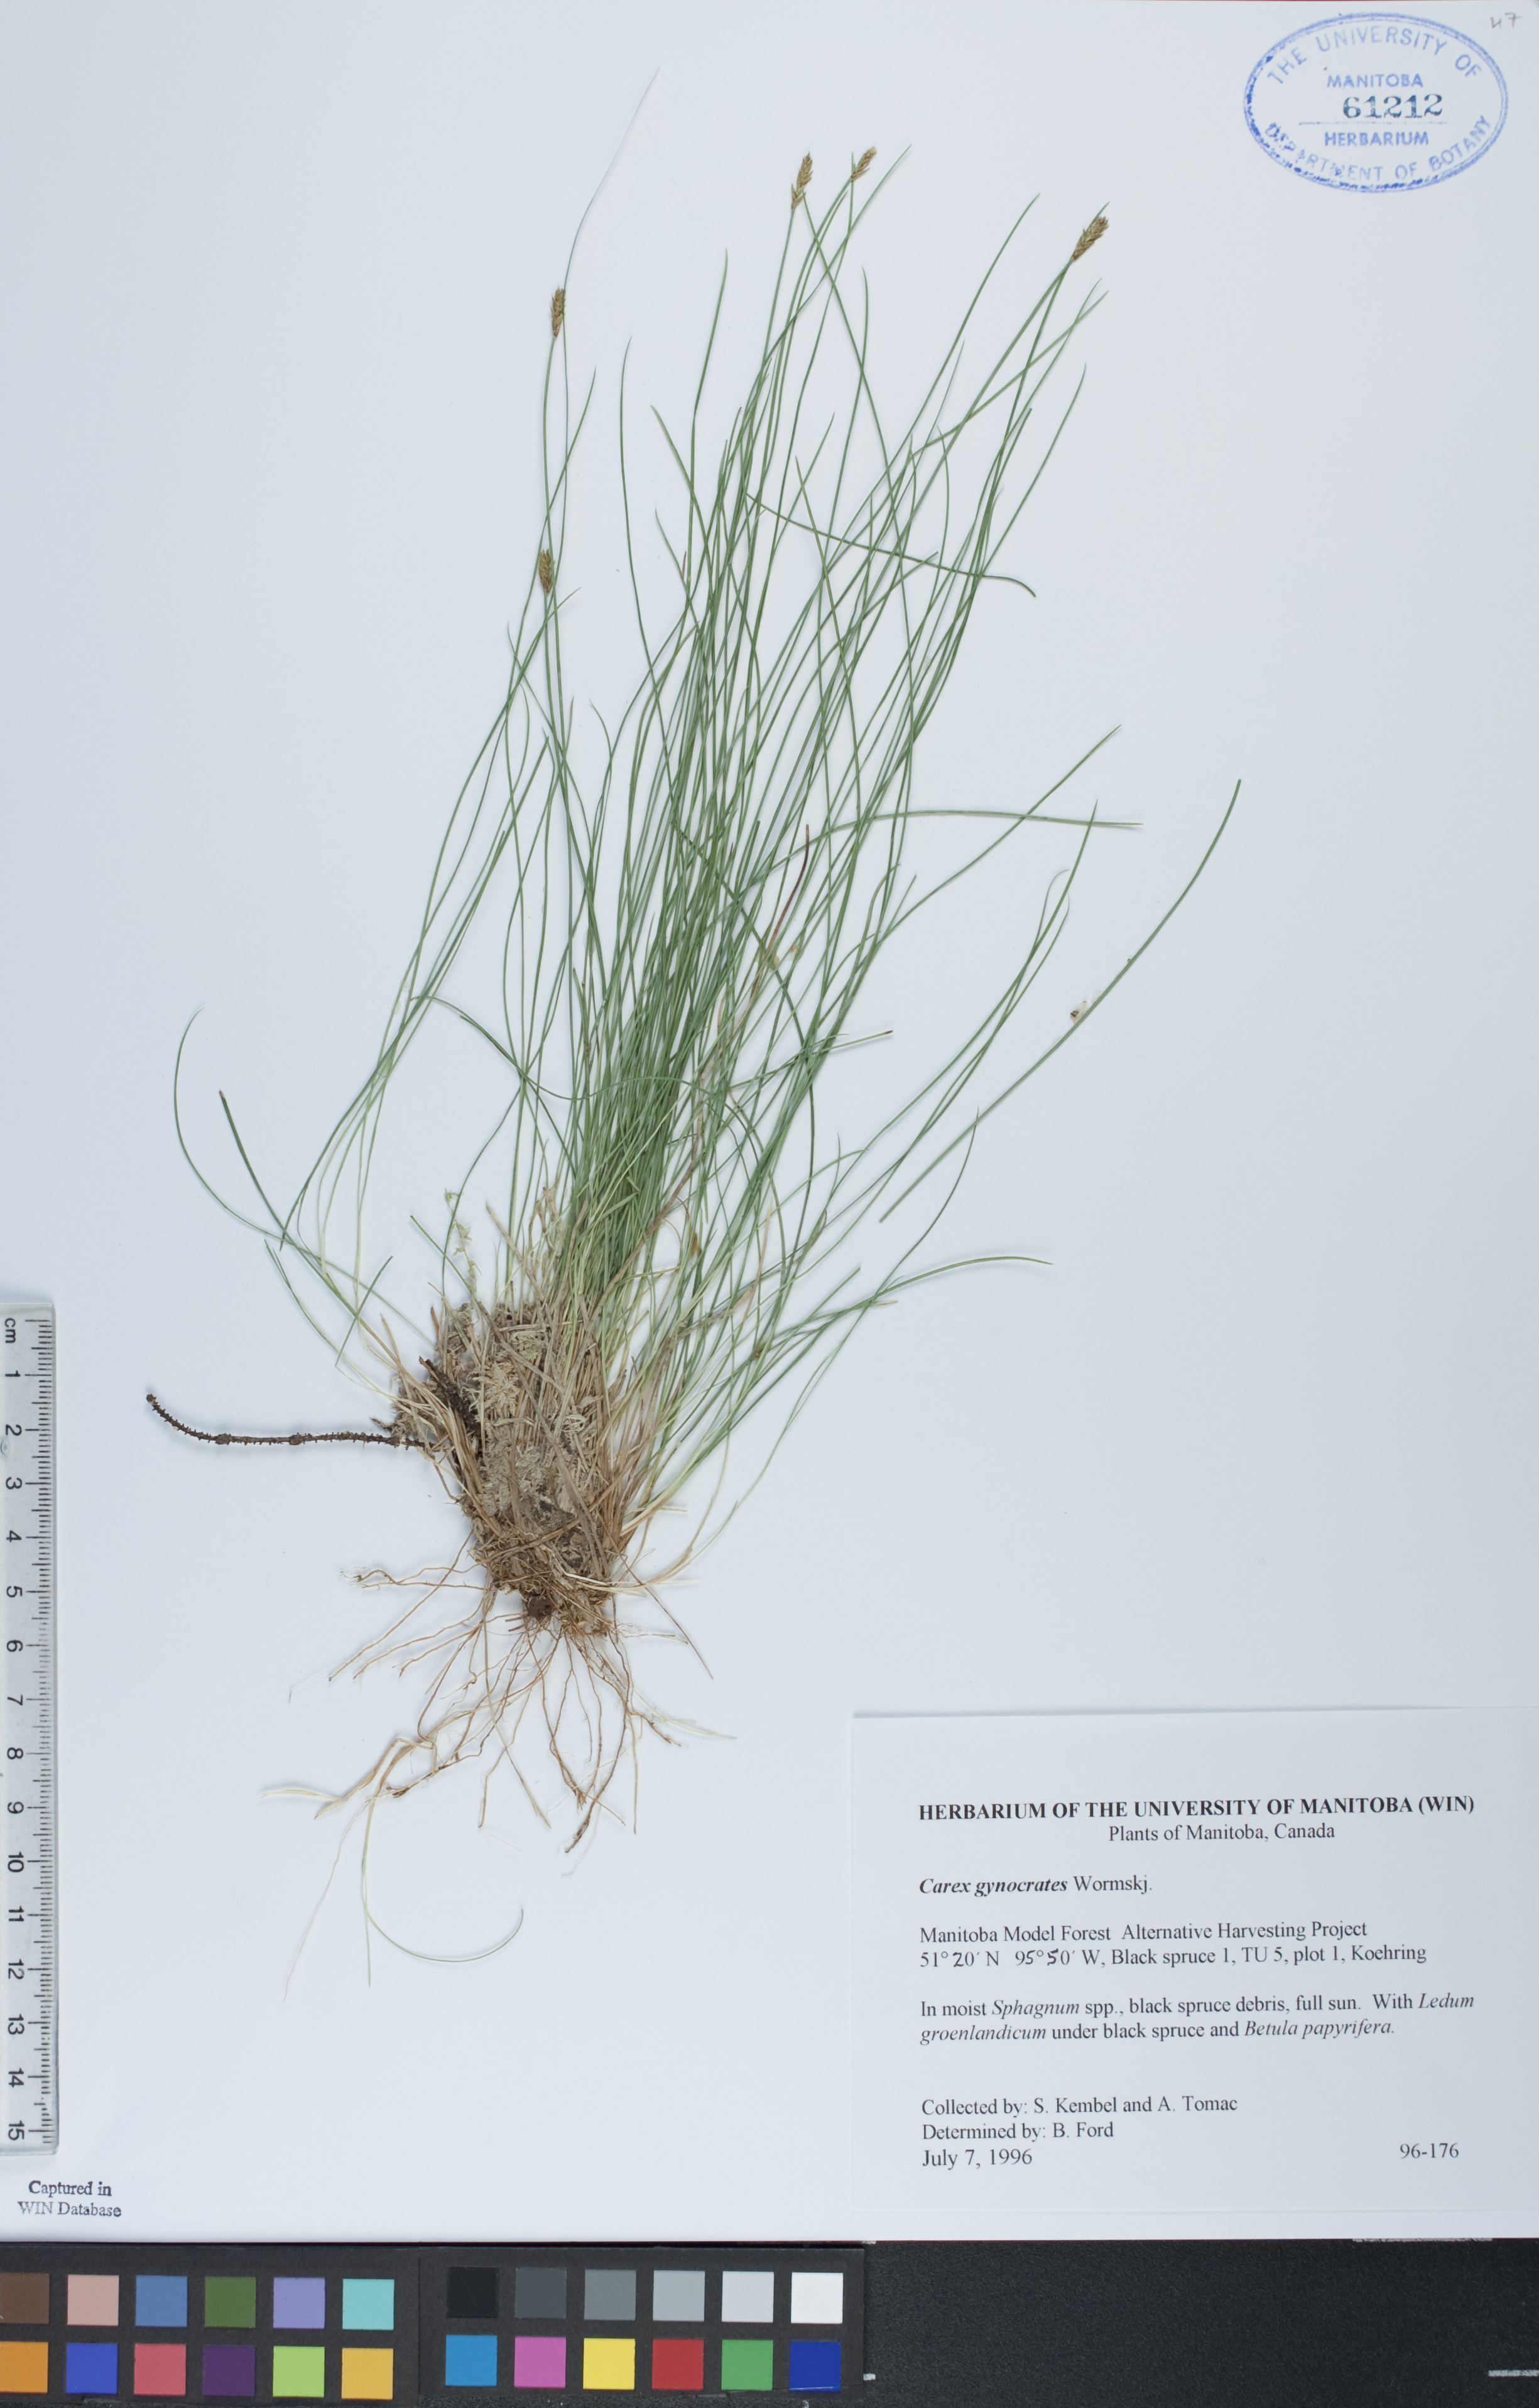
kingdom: Plantae
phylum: Tracheophyta
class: Liliopsida
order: Poales
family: Cyperaceae
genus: Carex
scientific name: Carex nardina
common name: Nard sedge
